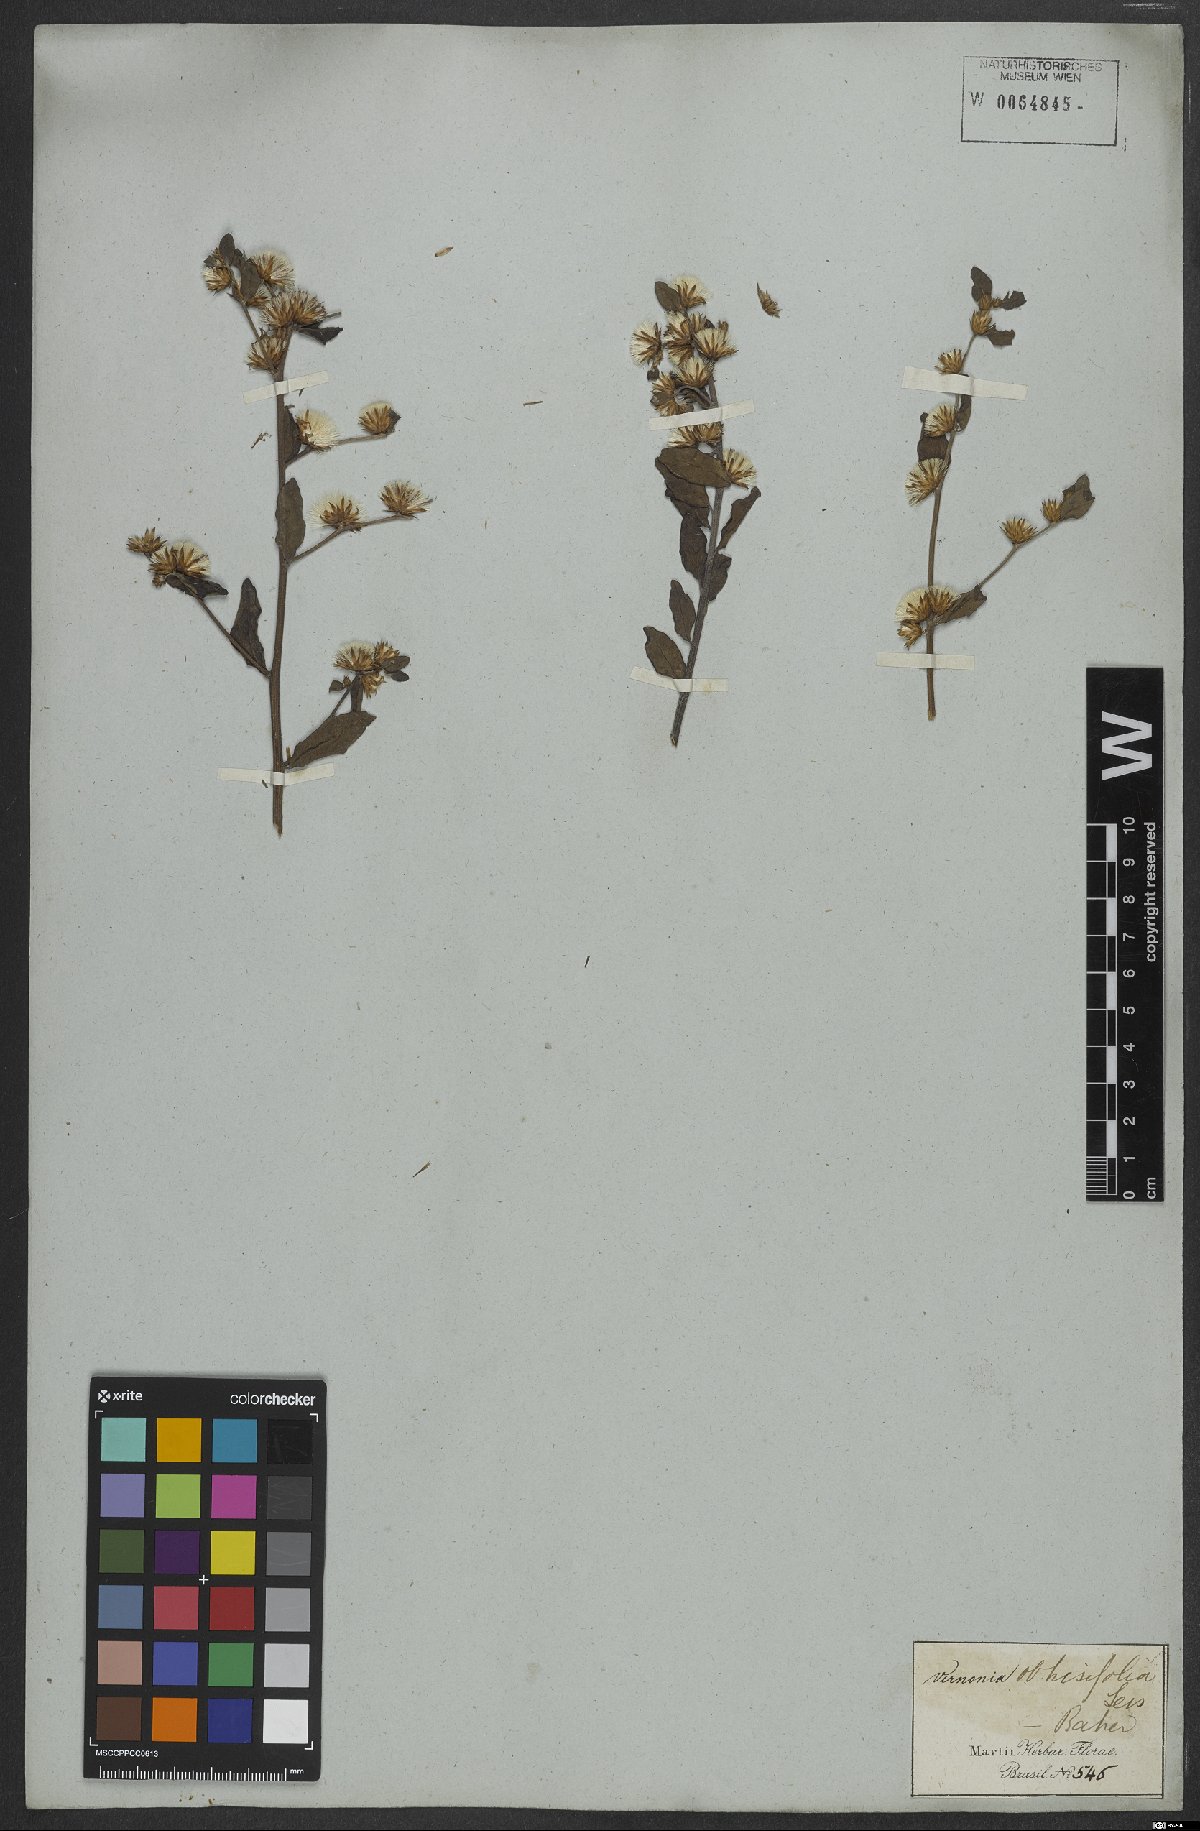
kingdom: Plantae
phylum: Tracheophyta
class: Magnoliopsida
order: Asterales
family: Asteraceae
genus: Lepidaploa
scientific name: Lepidaploa obtusifolia
